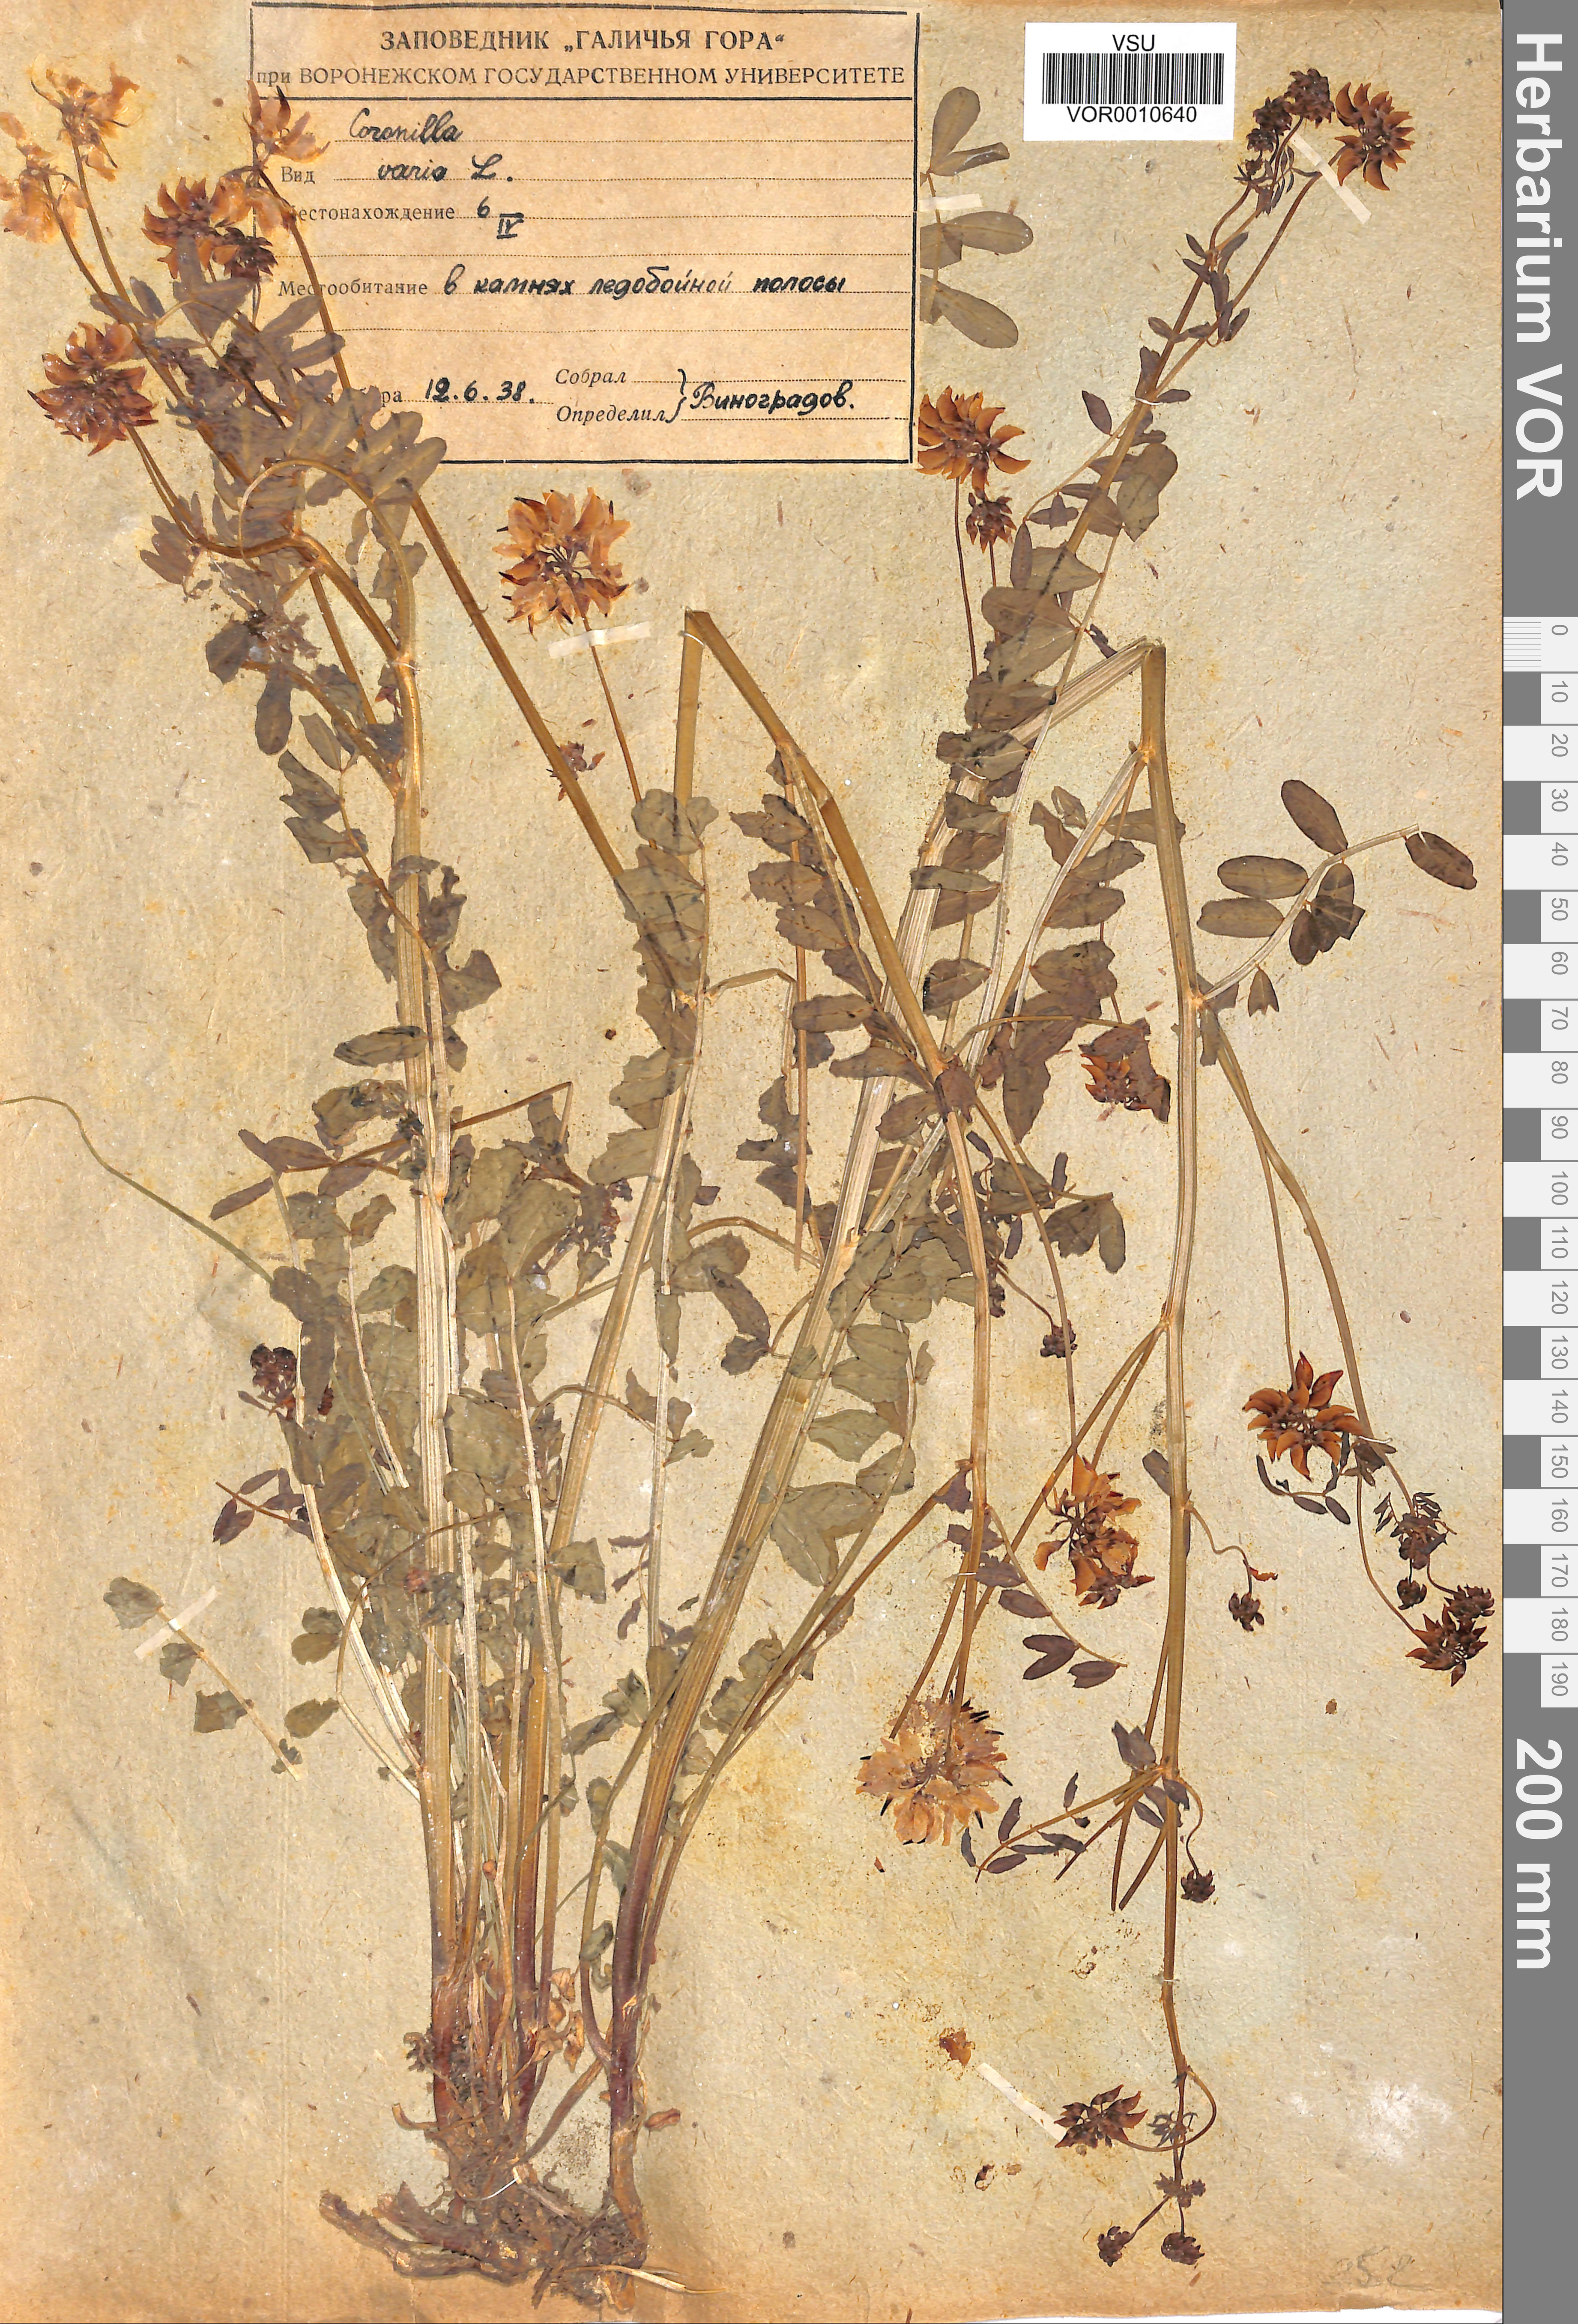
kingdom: Plantae
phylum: Tracheophyta
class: Magnoliopsida
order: Fabales
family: Fabaceae
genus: Coronilla
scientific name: Coronilla varia
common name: Crownvetch
